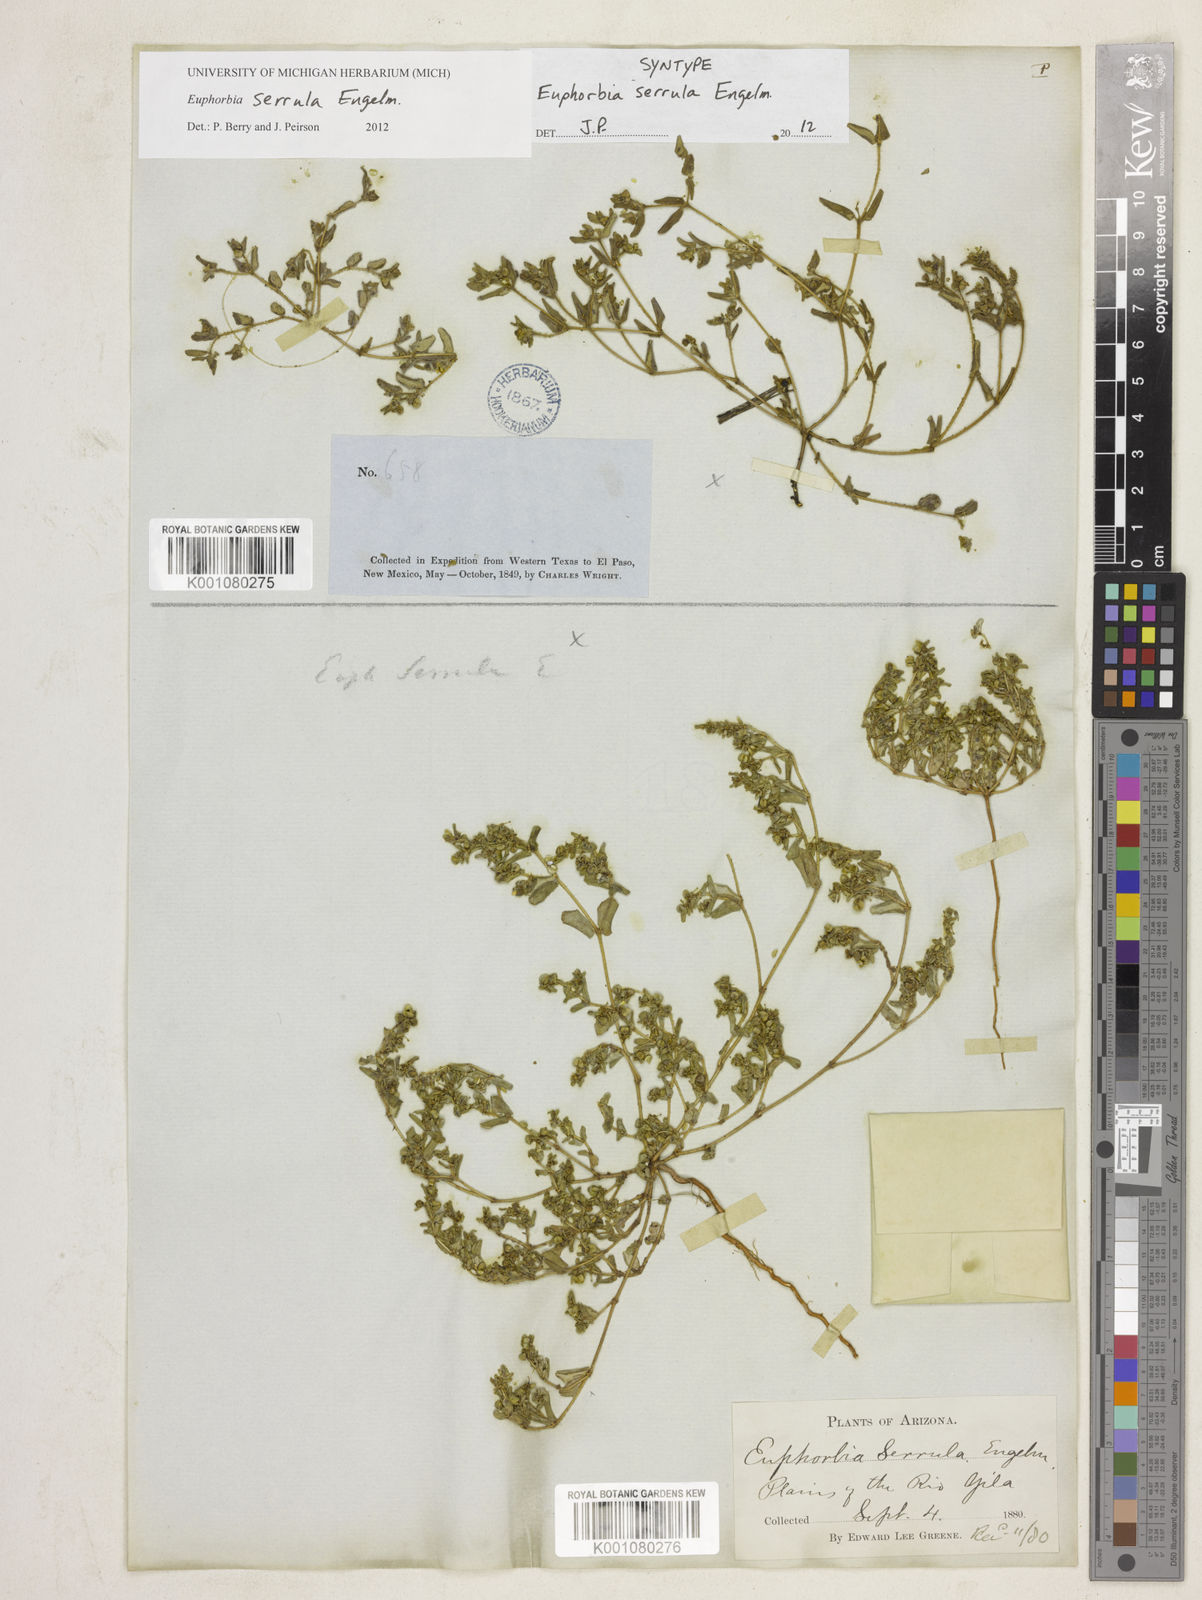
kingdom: Plantae
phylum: Tracheophyta
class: Magnoliopsida
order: Malpighiales
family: Euphorbiaceae
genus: Euphorbia
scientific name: Euphorbia serrula
